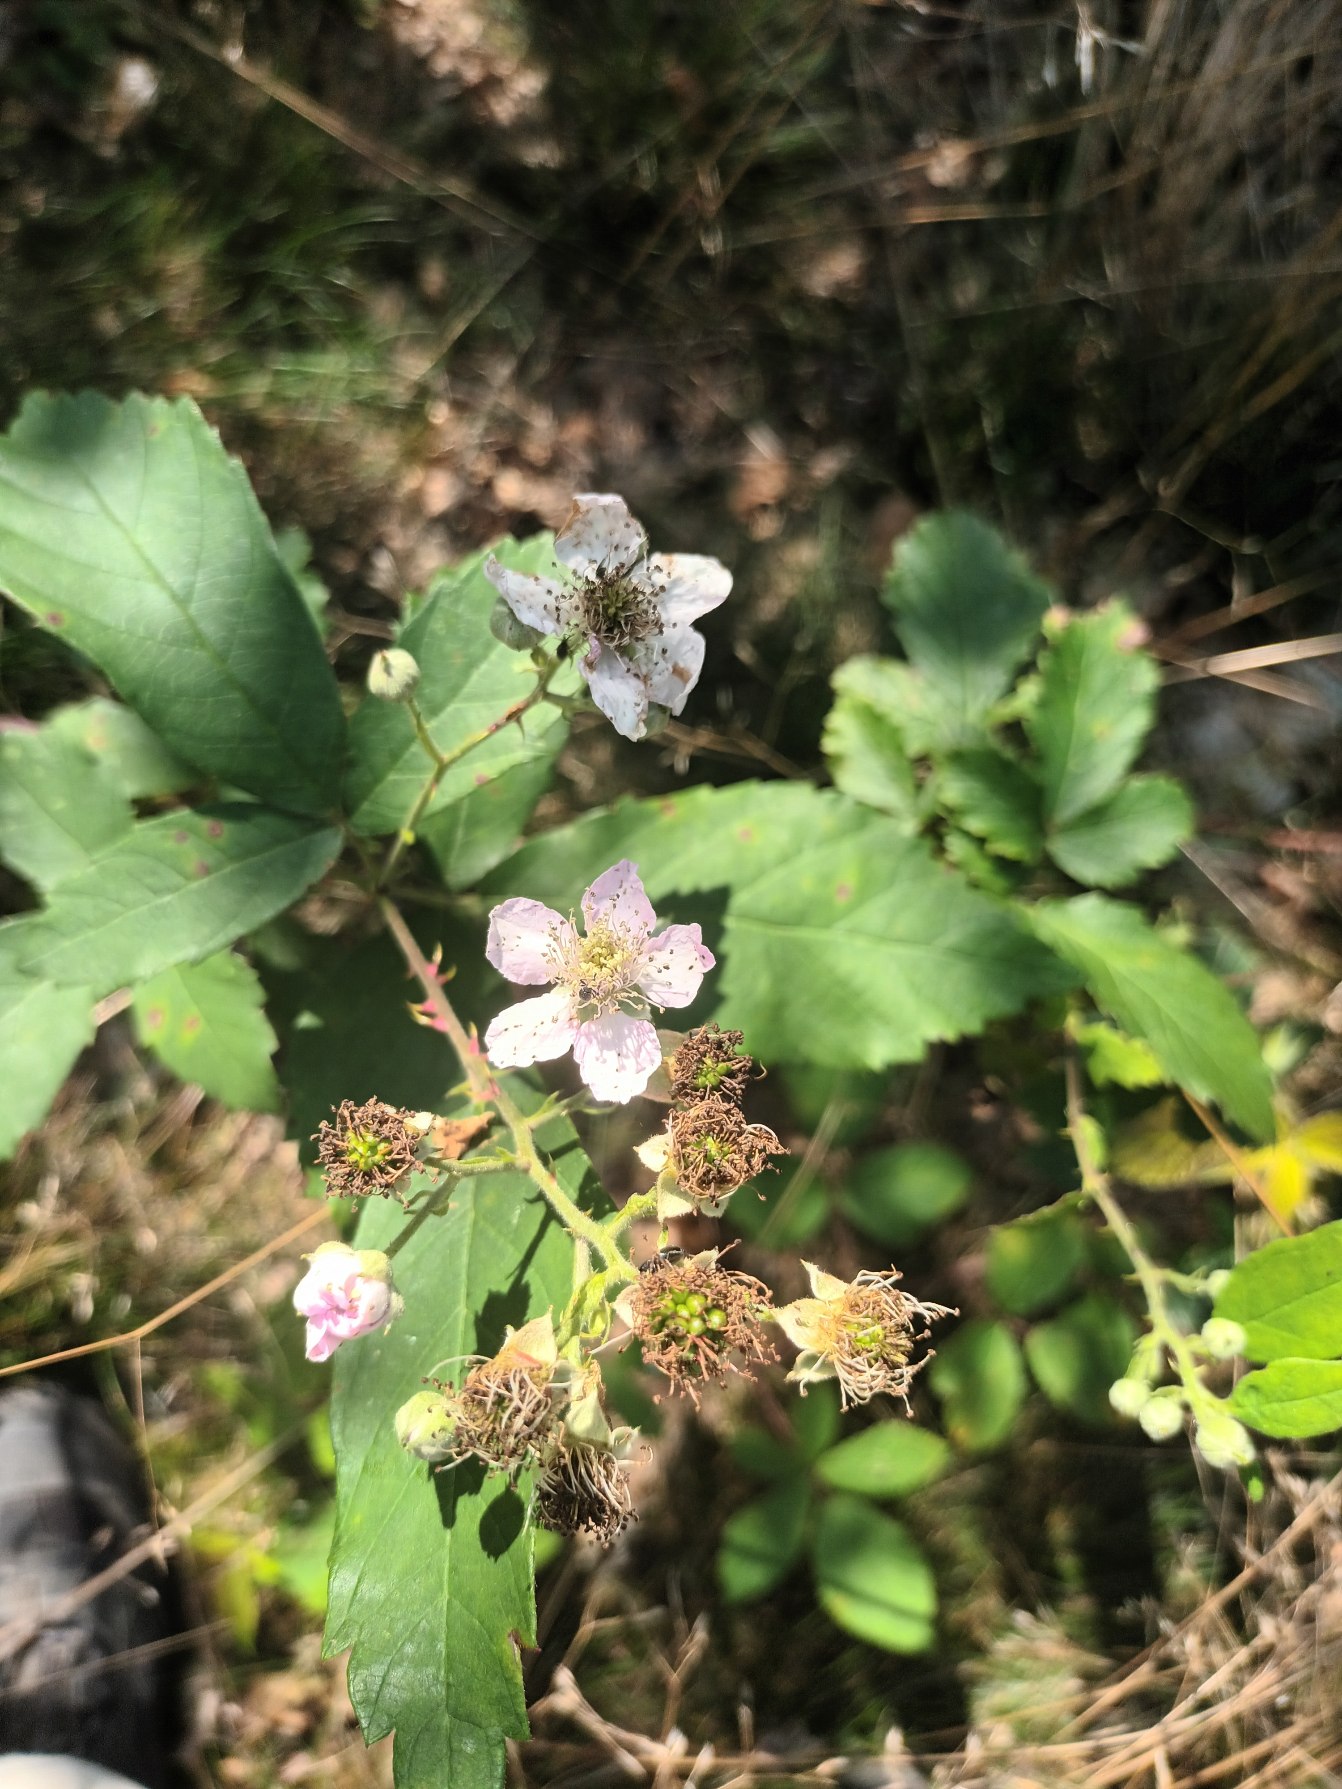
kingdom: Plantae
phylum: Tracheophyta
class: Magnoliopsida
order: Rosales
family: Rosaceae
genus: Rubus
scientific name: Rubus grabowskii
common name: Duskblomstret brombær
